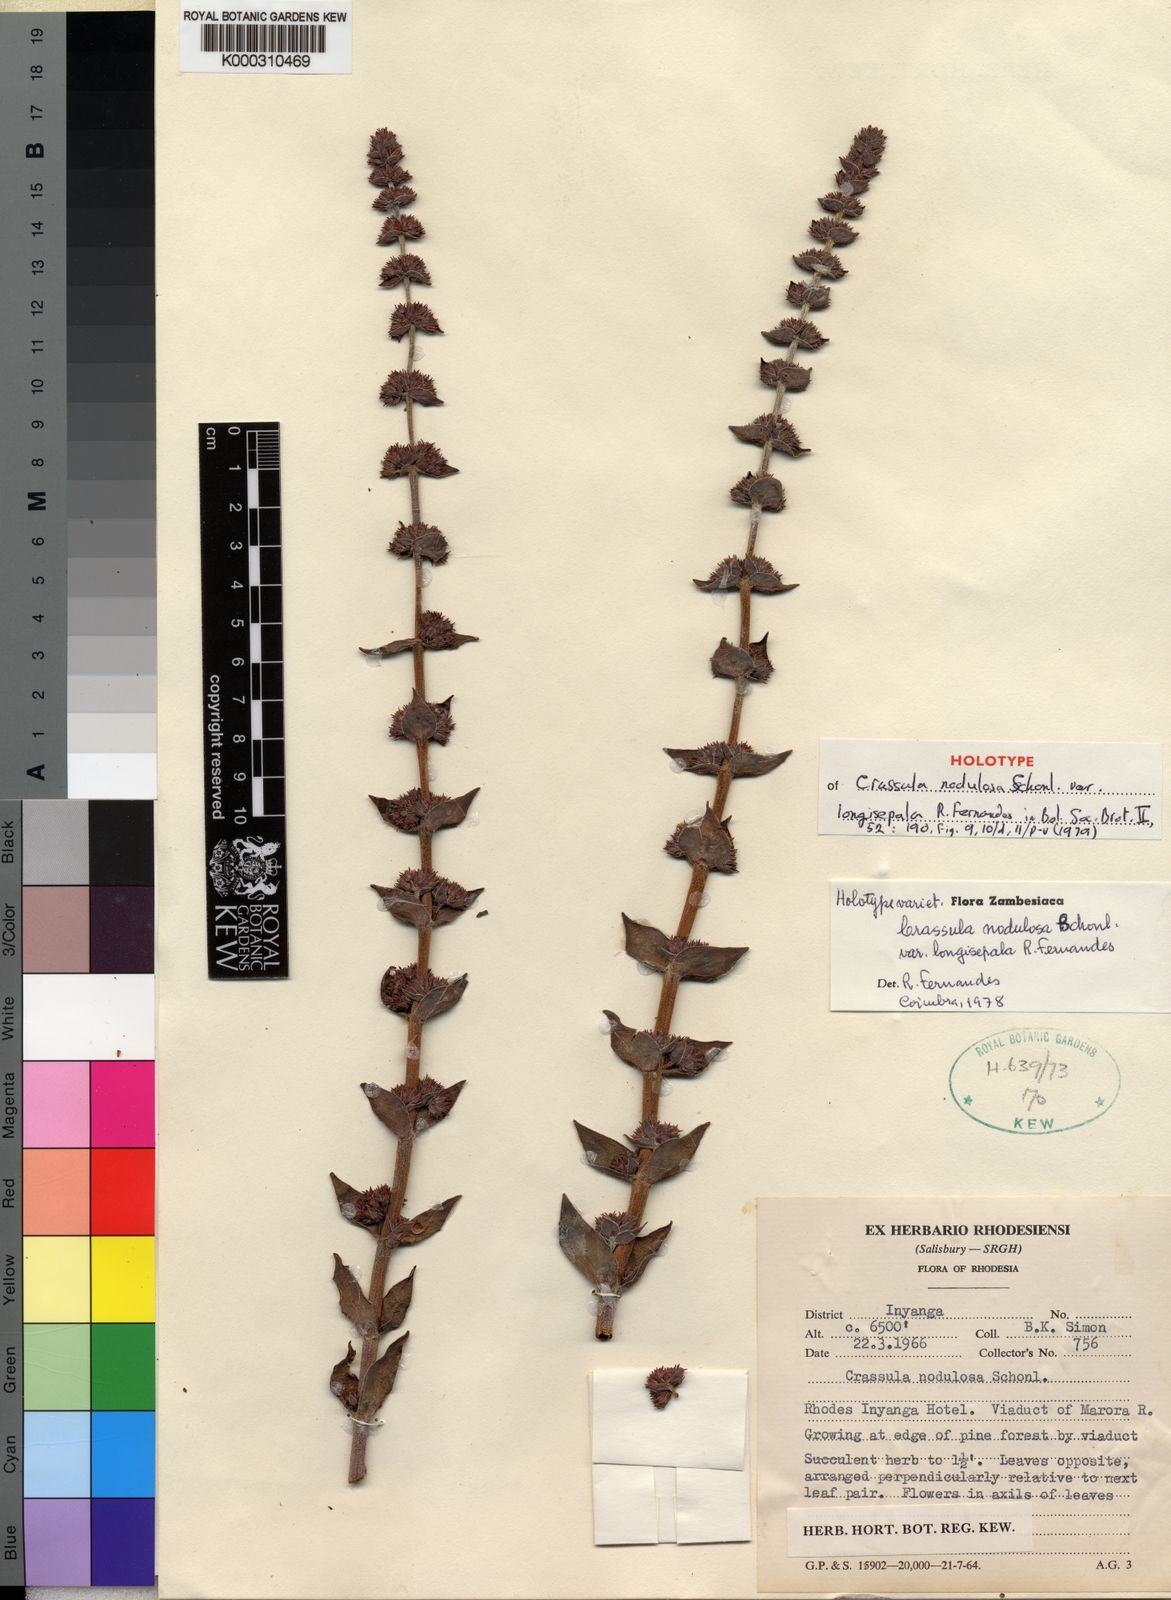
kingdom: Plantae
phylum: Tracheophyta
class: Magnoliopsida
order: Saxifragales
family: Crassulaceae
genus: Crassula
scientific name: Crassula
